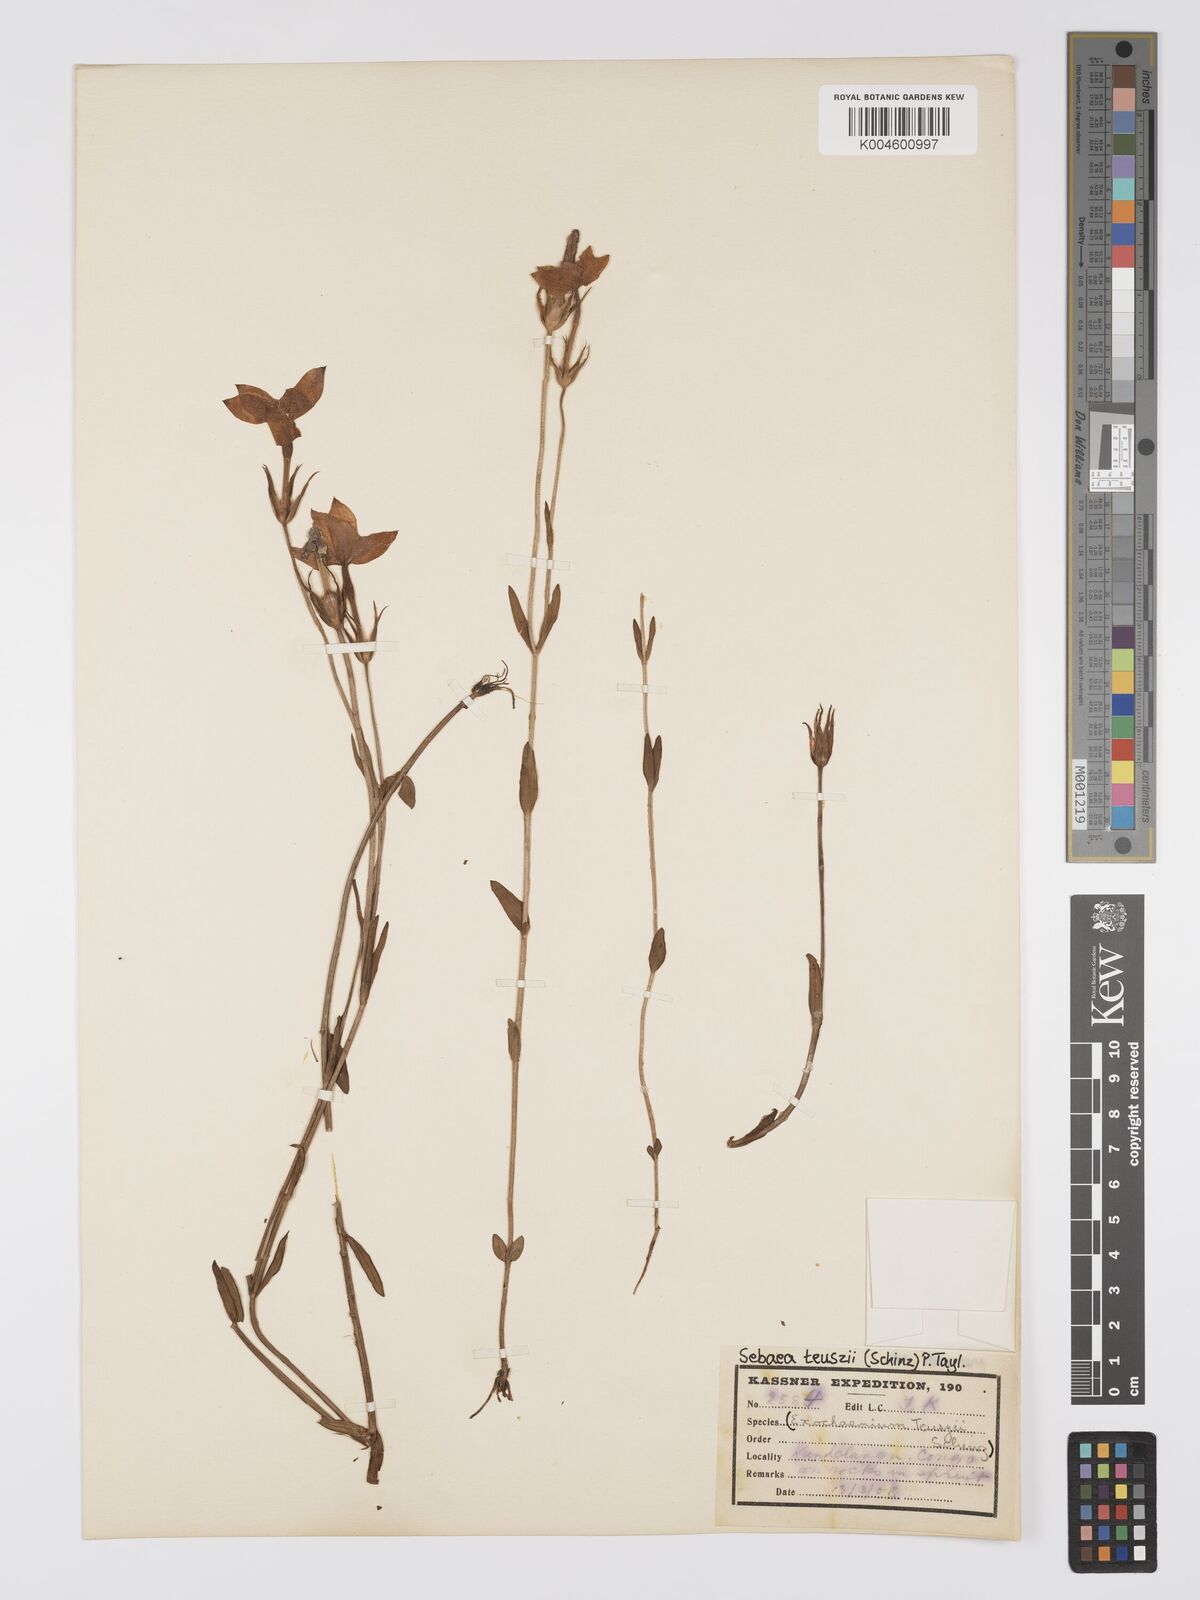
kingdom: Plantae
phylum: Tracheophyta
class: Magnoliopsida
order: Gentianales
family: Gentianaceae
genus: Exochaenium
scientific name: Exochaenium teuszii
